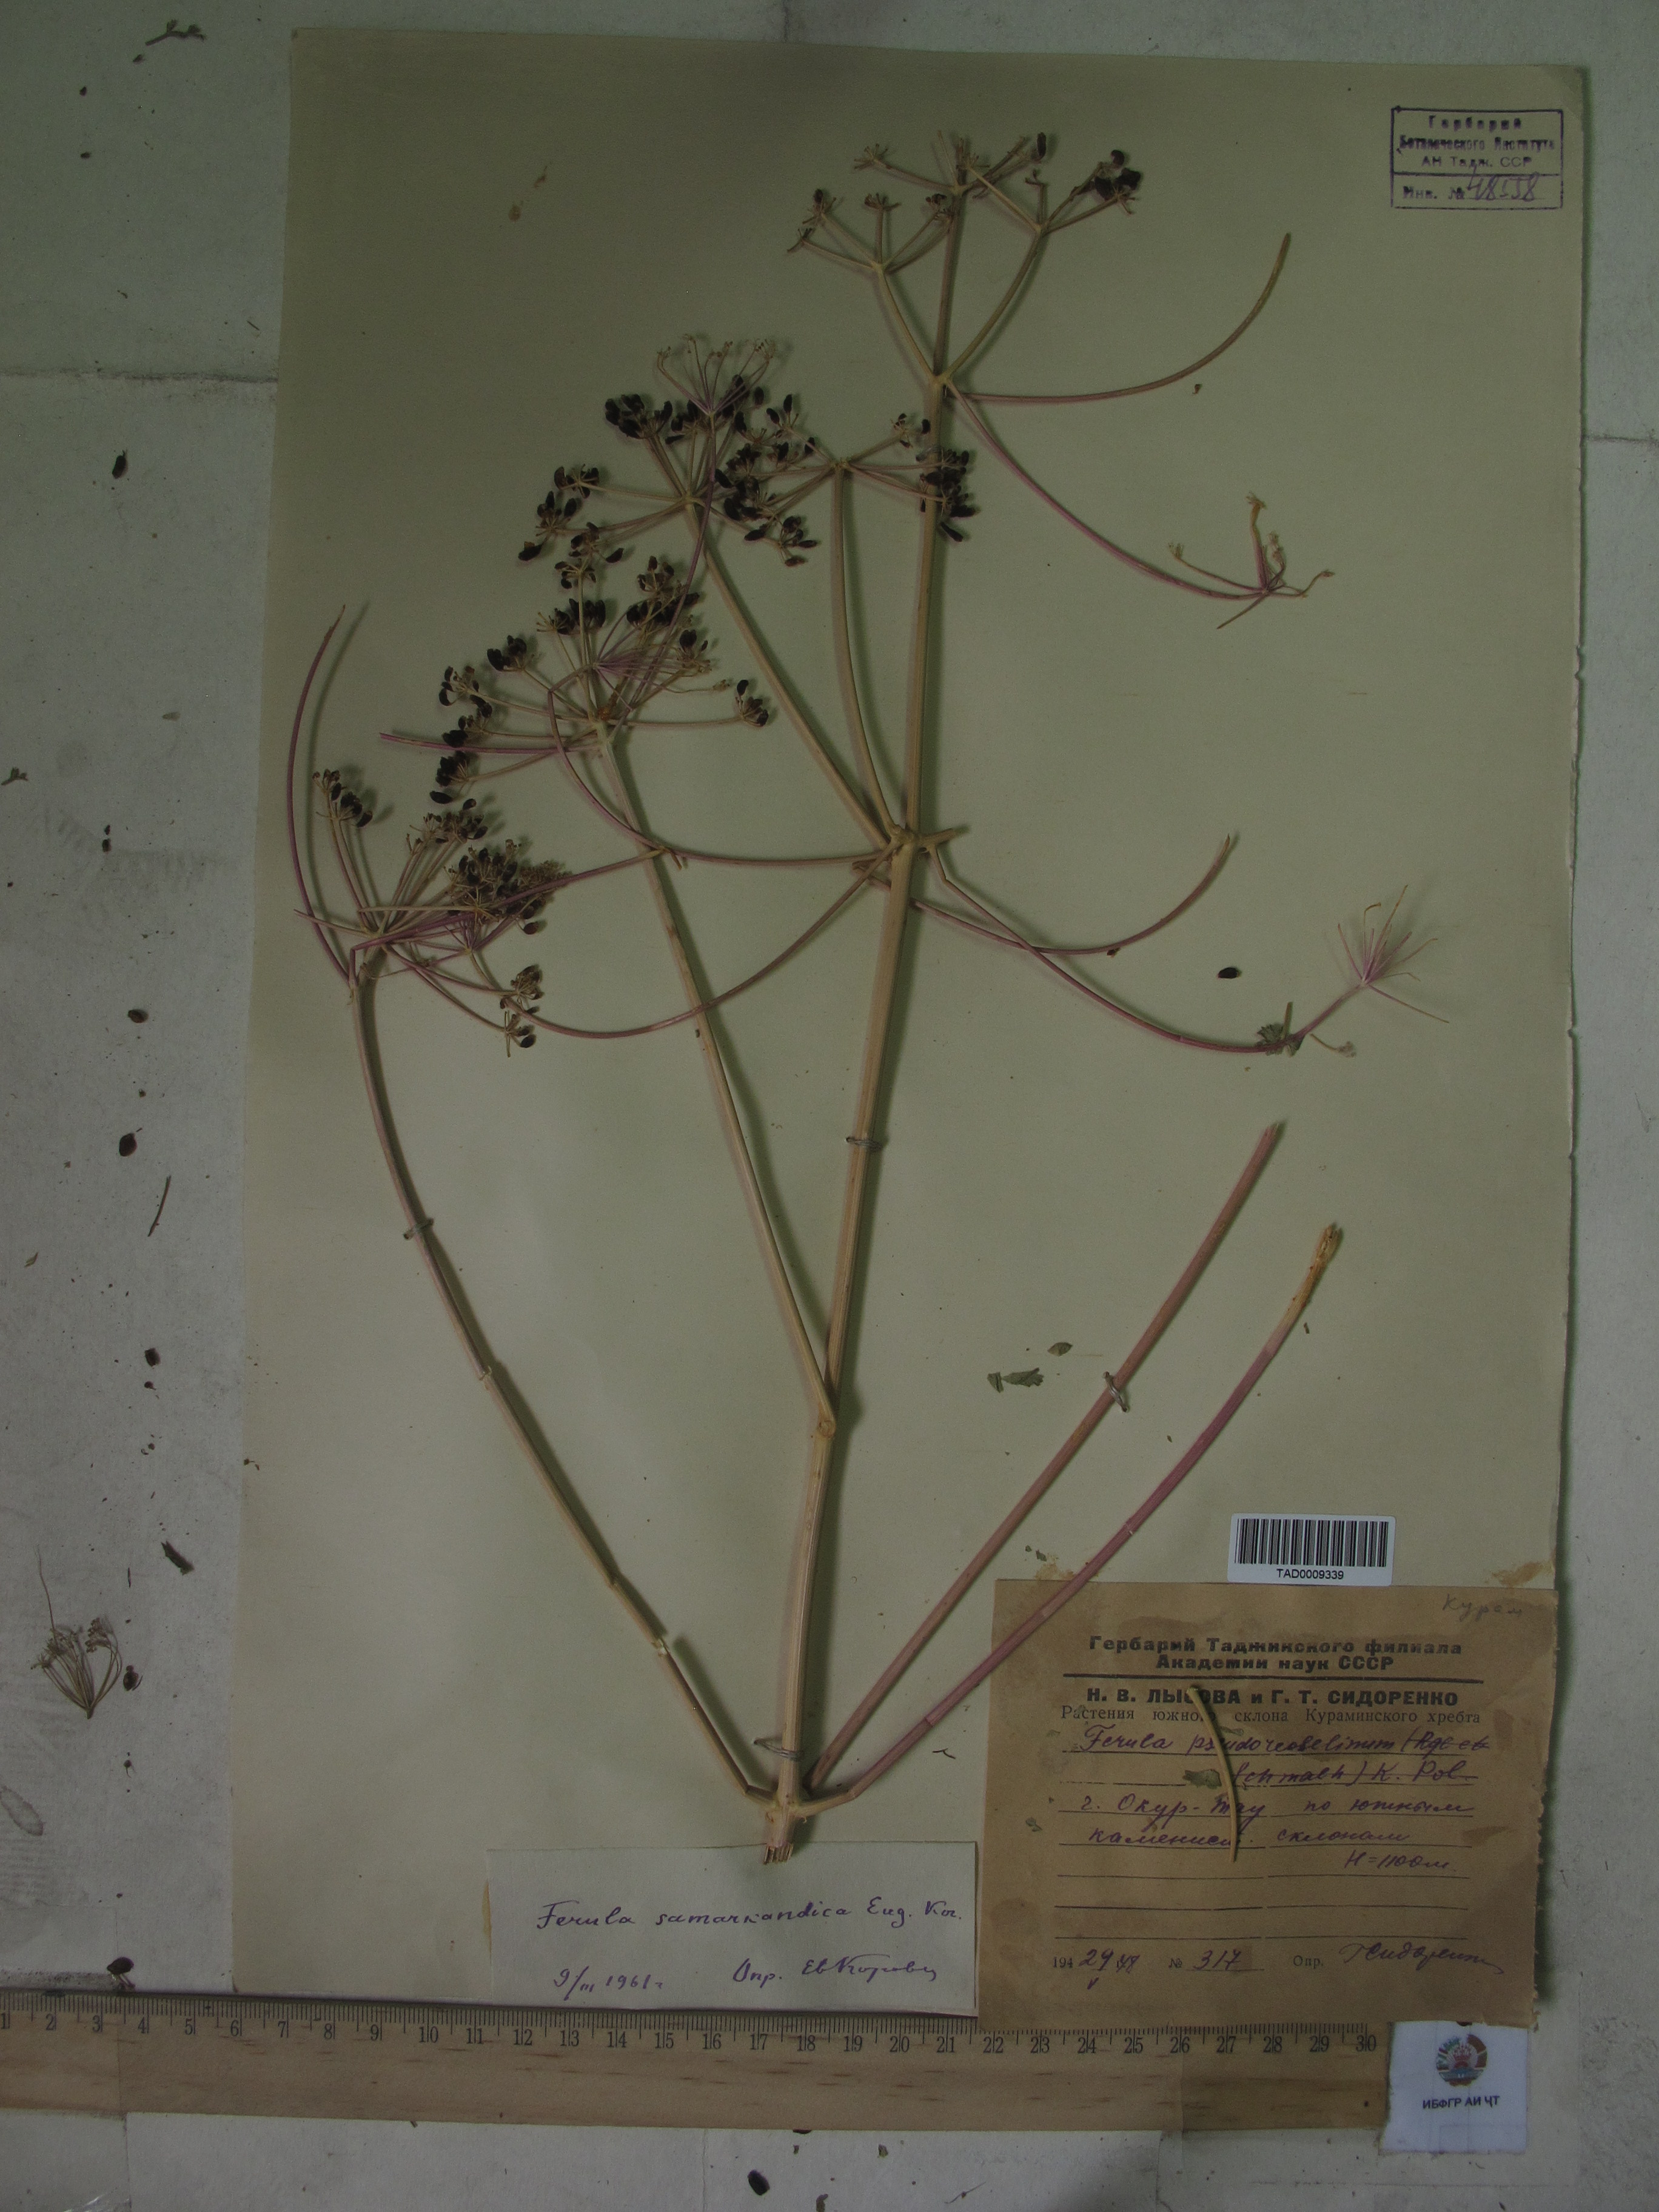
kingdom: Plantae
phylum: Tracheophyta
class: Magnoliopsida
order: Apiales
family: Apiaceae
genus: Ferula
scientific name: Ferula samarkandica
